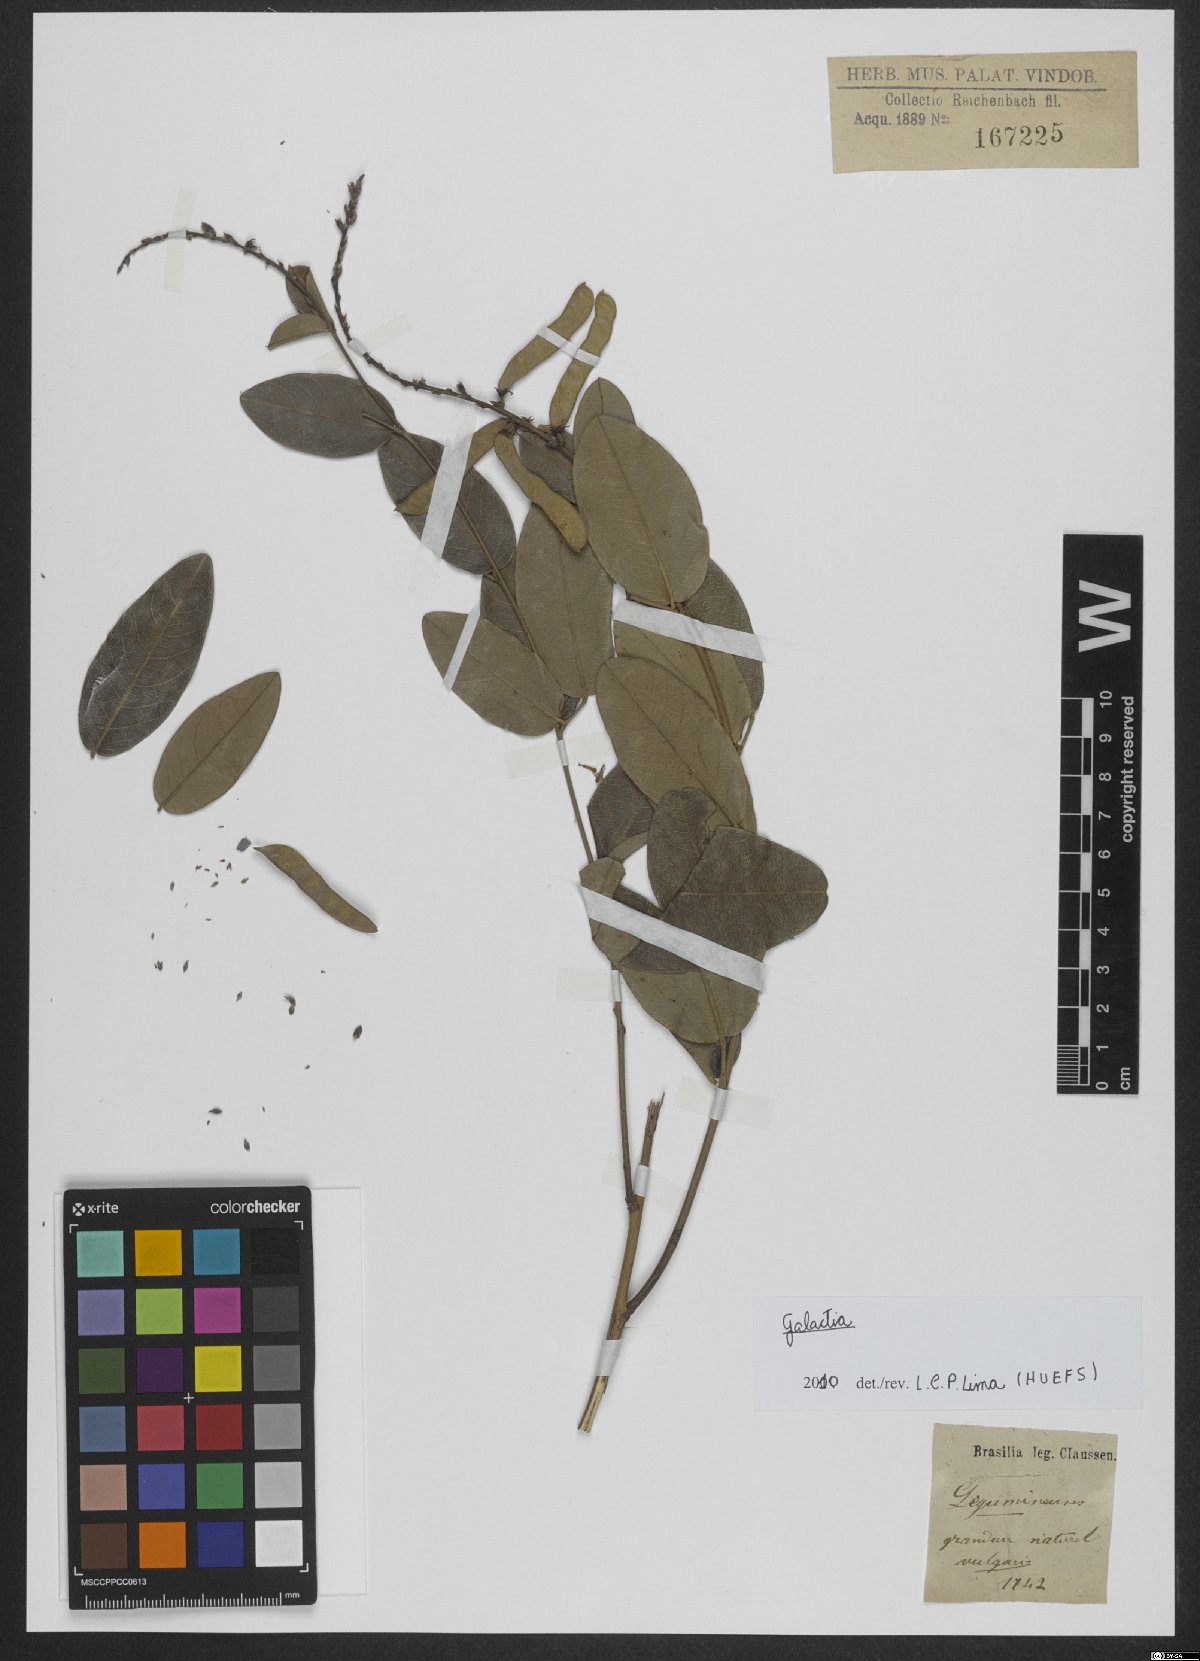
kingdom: Plantae
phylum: Tracheophyta
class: Magnoliopsida
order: Fabales
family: Fabaceae
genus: Galactia
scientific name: Galactia striata
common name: Florida hammock milkpea
